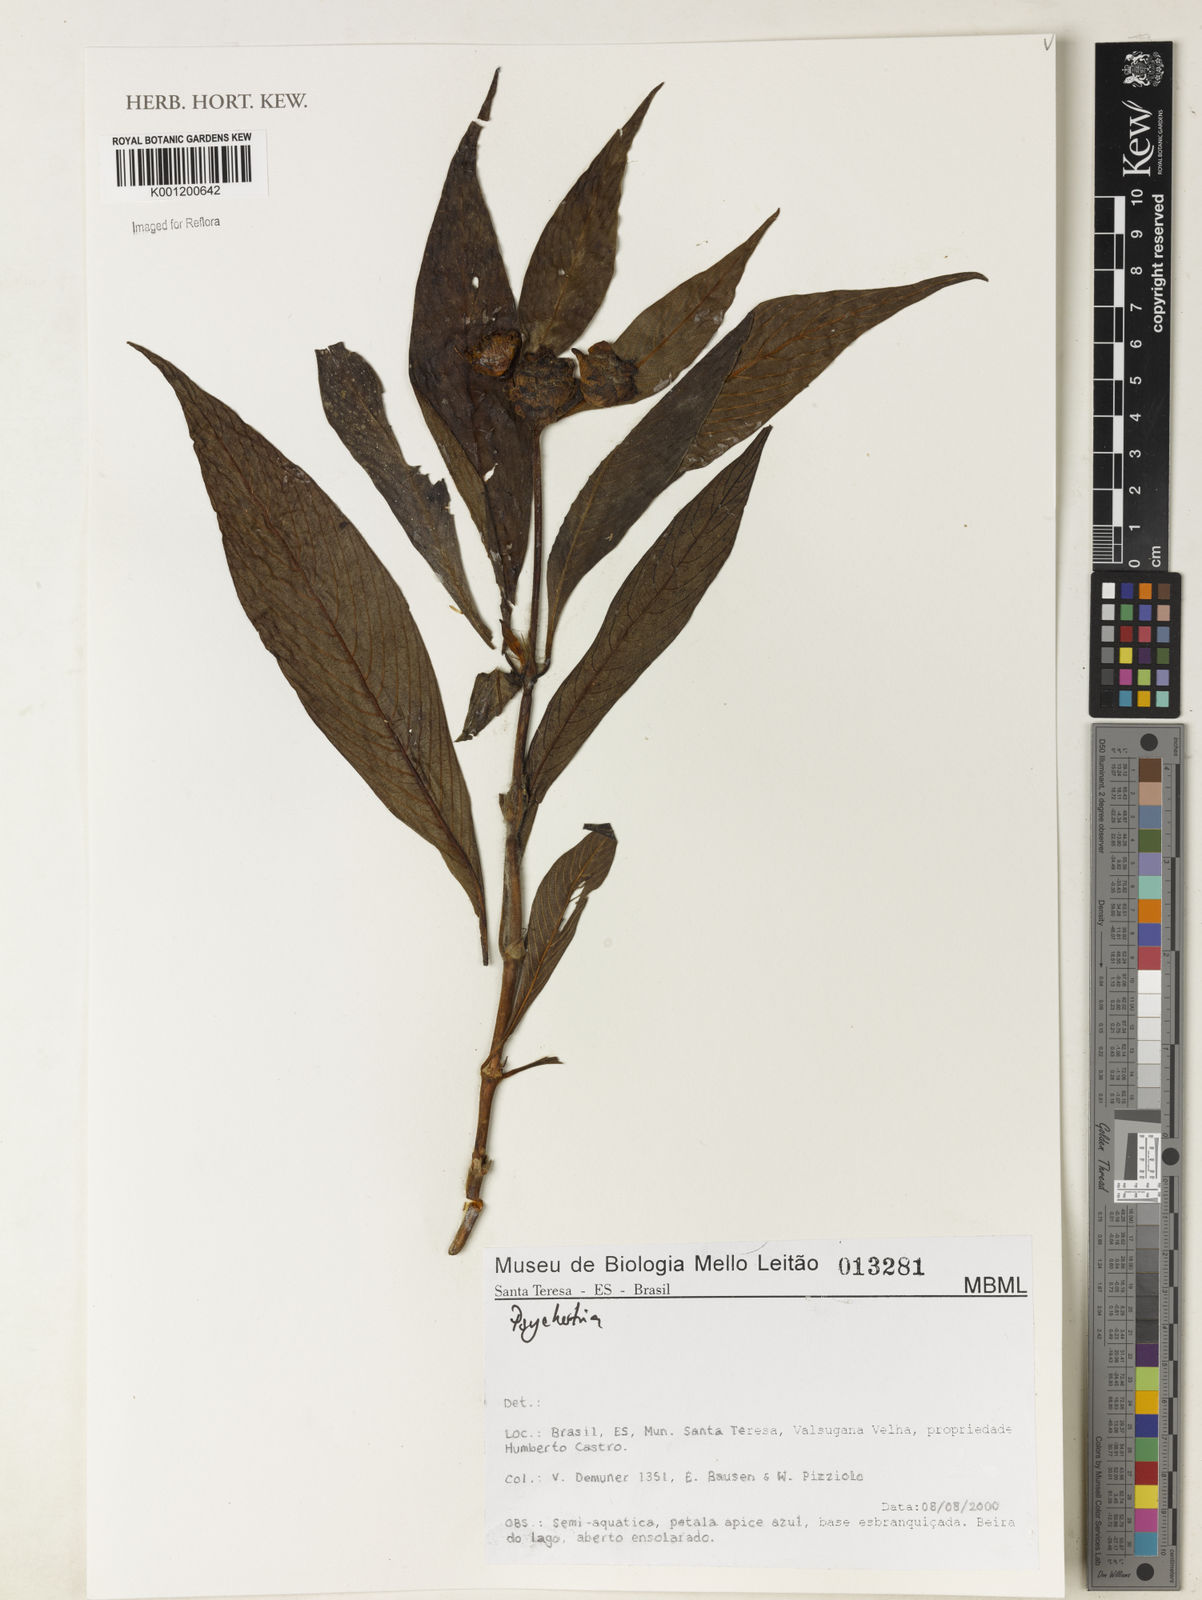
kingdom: Plantae
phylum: Tracheophyta
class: Magnoliopsida
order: Gentianales
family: Rubiaceae
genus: Psychotria
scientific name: Psychotria
